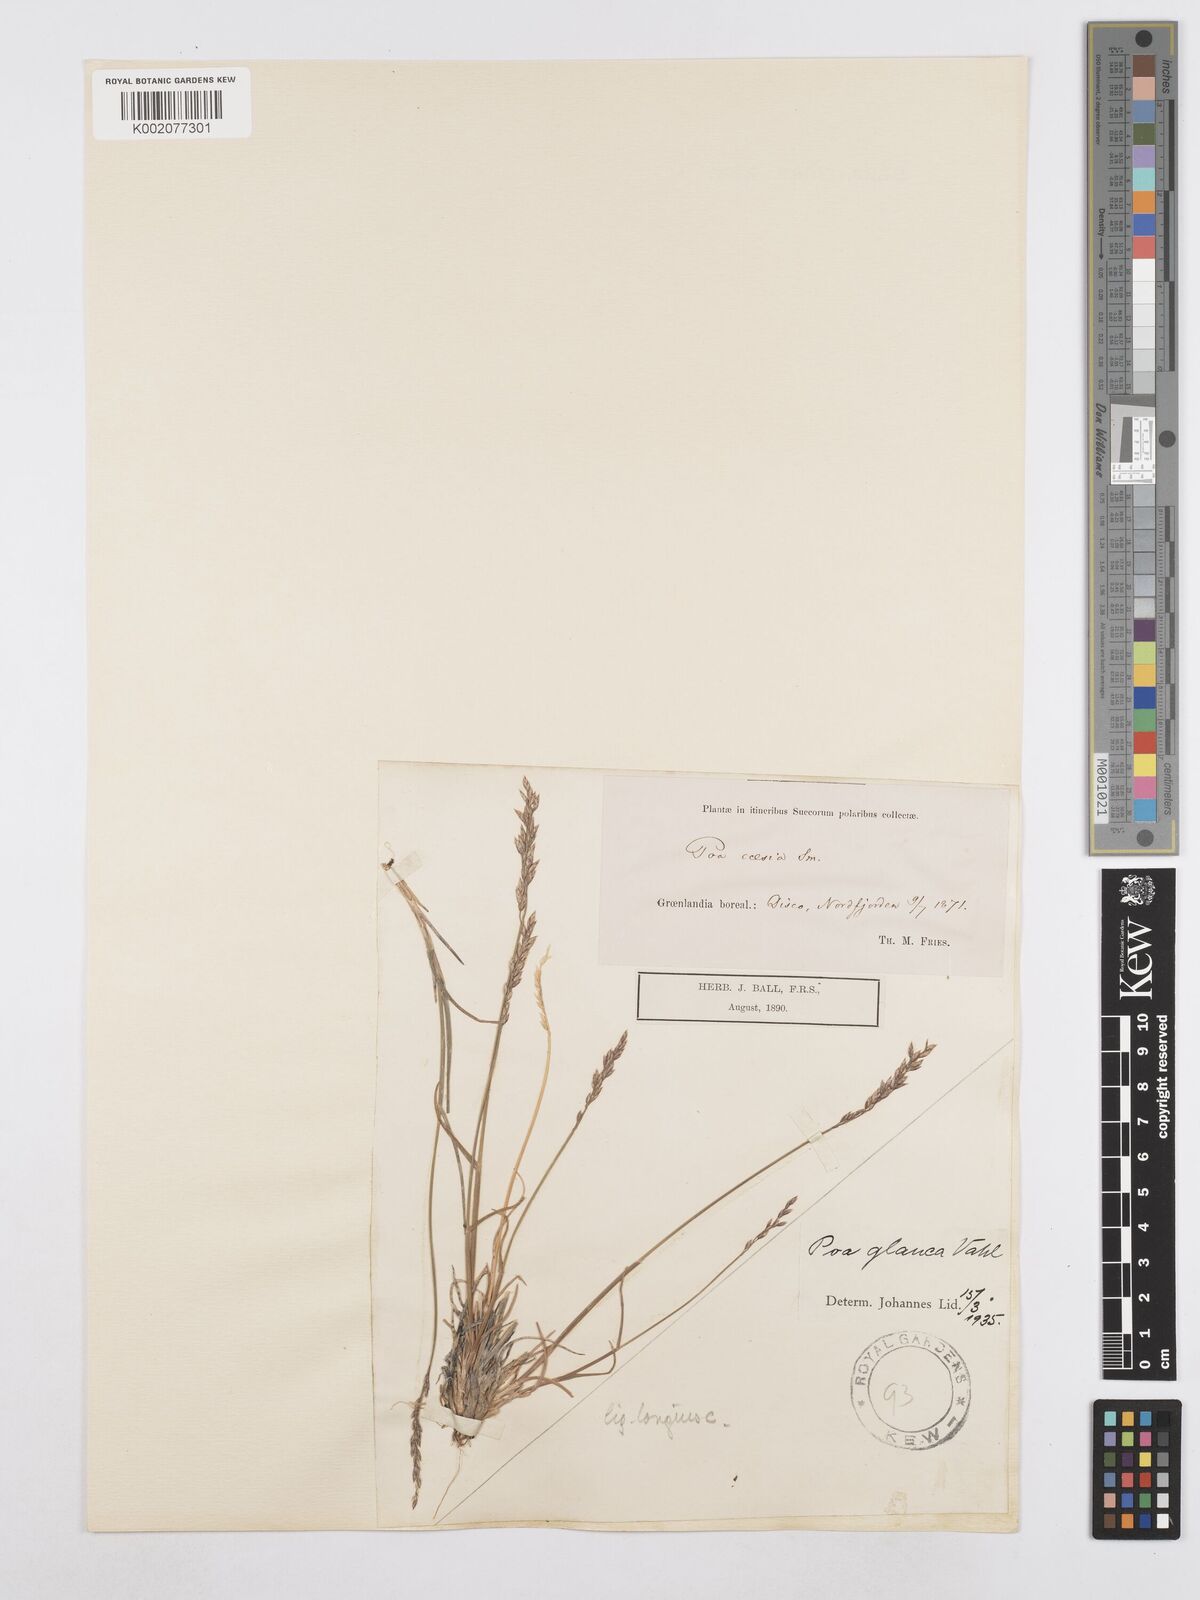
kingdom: Plantae
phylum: Tracheophyta
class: Liliopsida
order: Poales
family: Poaceae
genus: Poa
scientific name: Poa glauca
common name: Glaucous bluegrass
